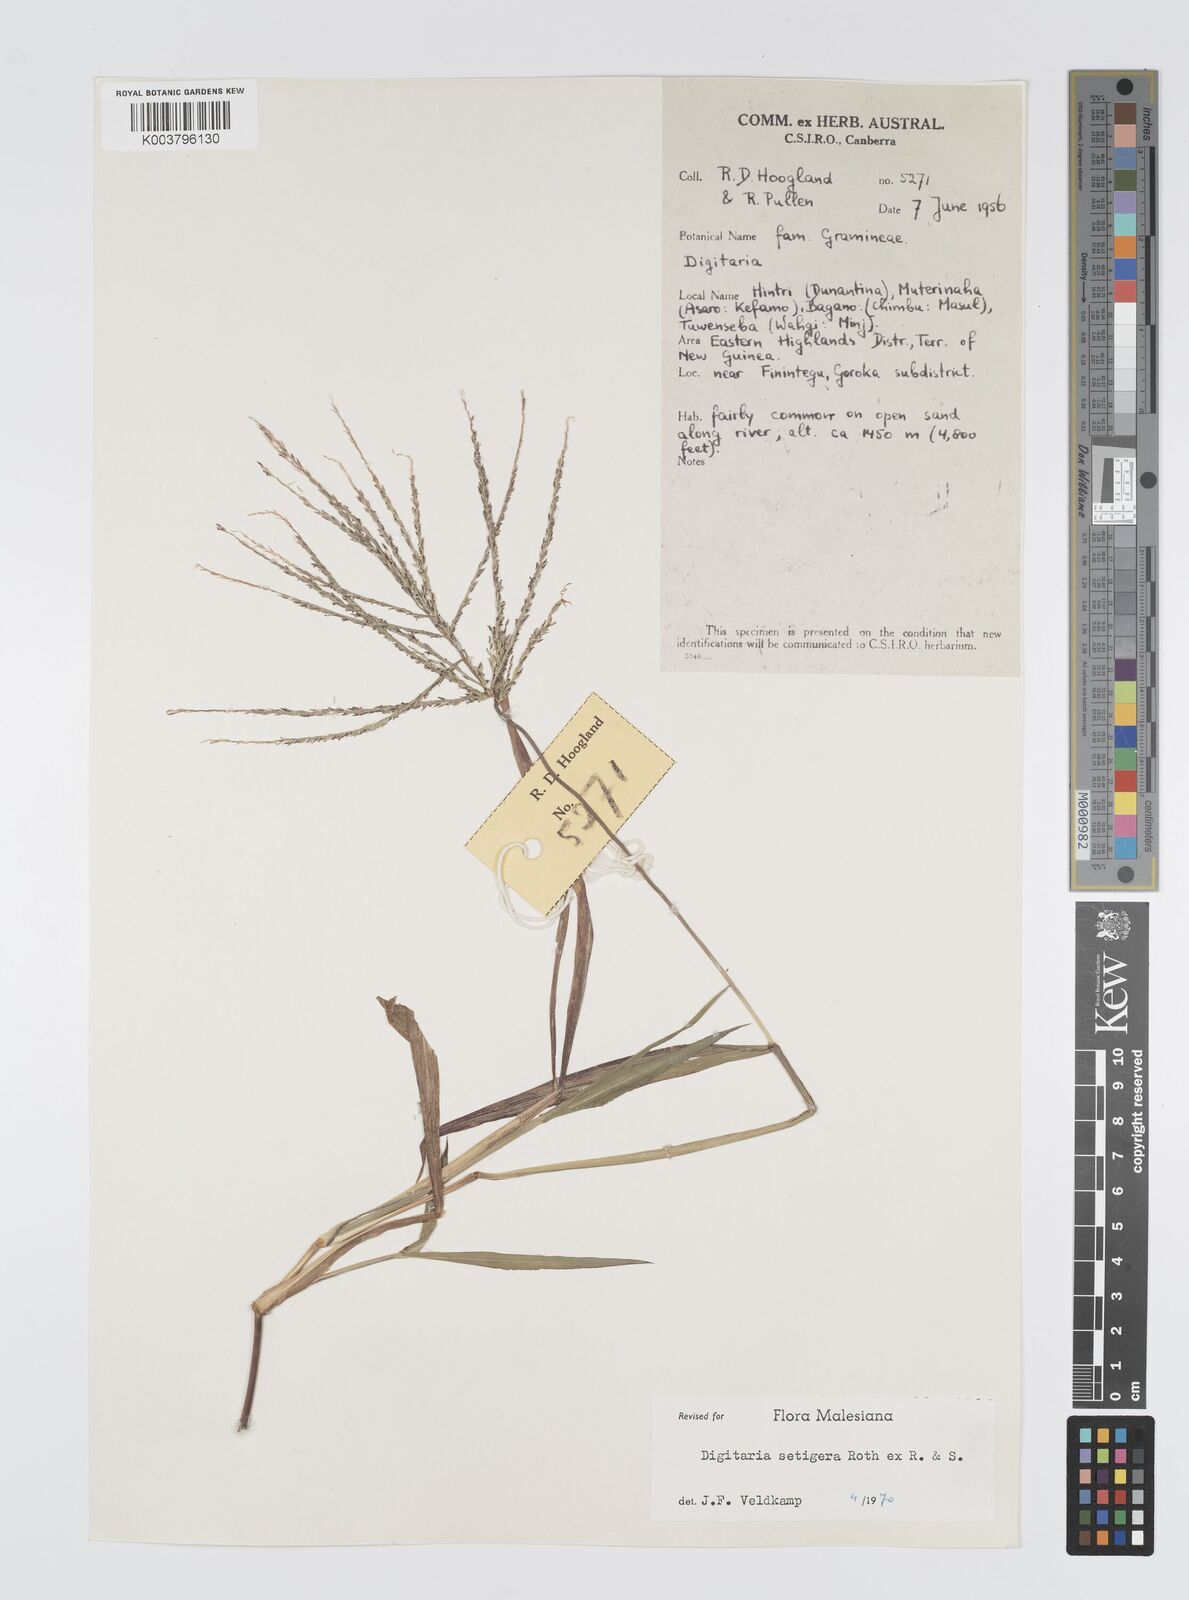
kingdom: Plantae
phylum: Tracheophyta
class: Liliopsida
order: Poales
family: Poaceae
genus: Digitaria
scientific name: Digitaria setigera
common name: East indian crabgrass
